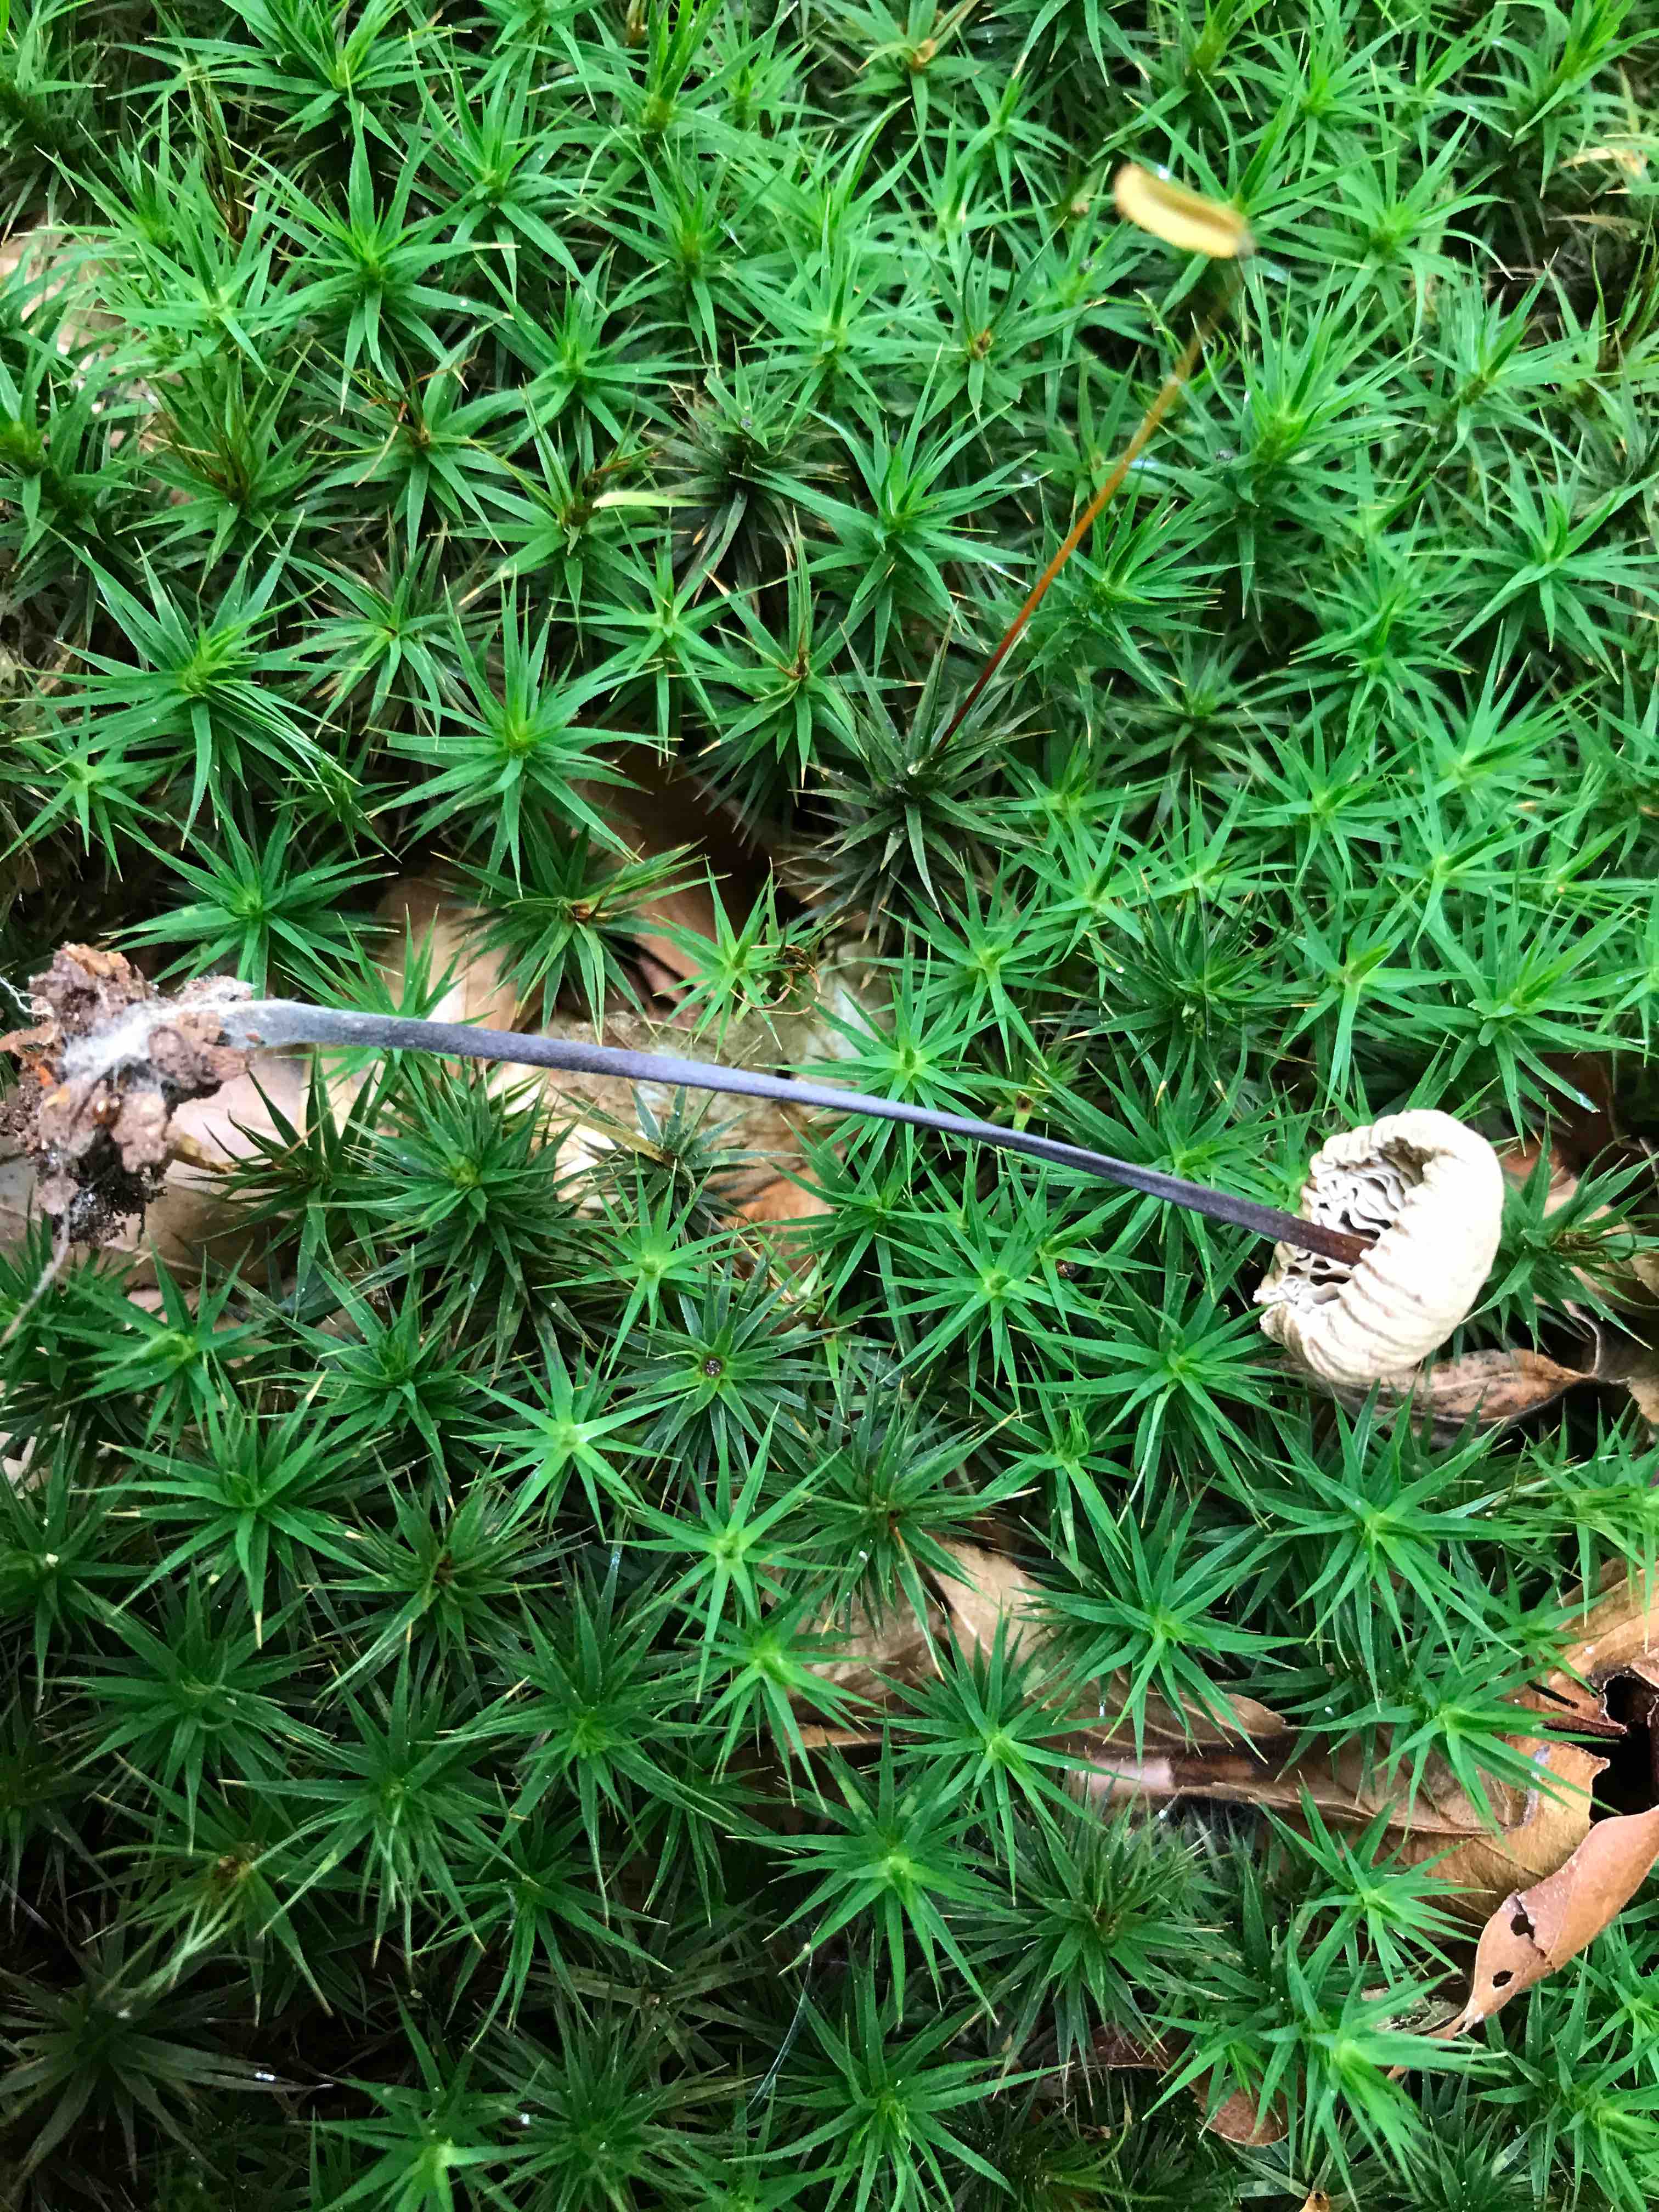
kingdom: Fungi
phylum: Basidiomycota
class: Agaricomycetes
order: Agaricales
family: Omphalotaceae
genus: Mycetinis
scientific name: Mycetinis alliaceus
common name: stor løghat
